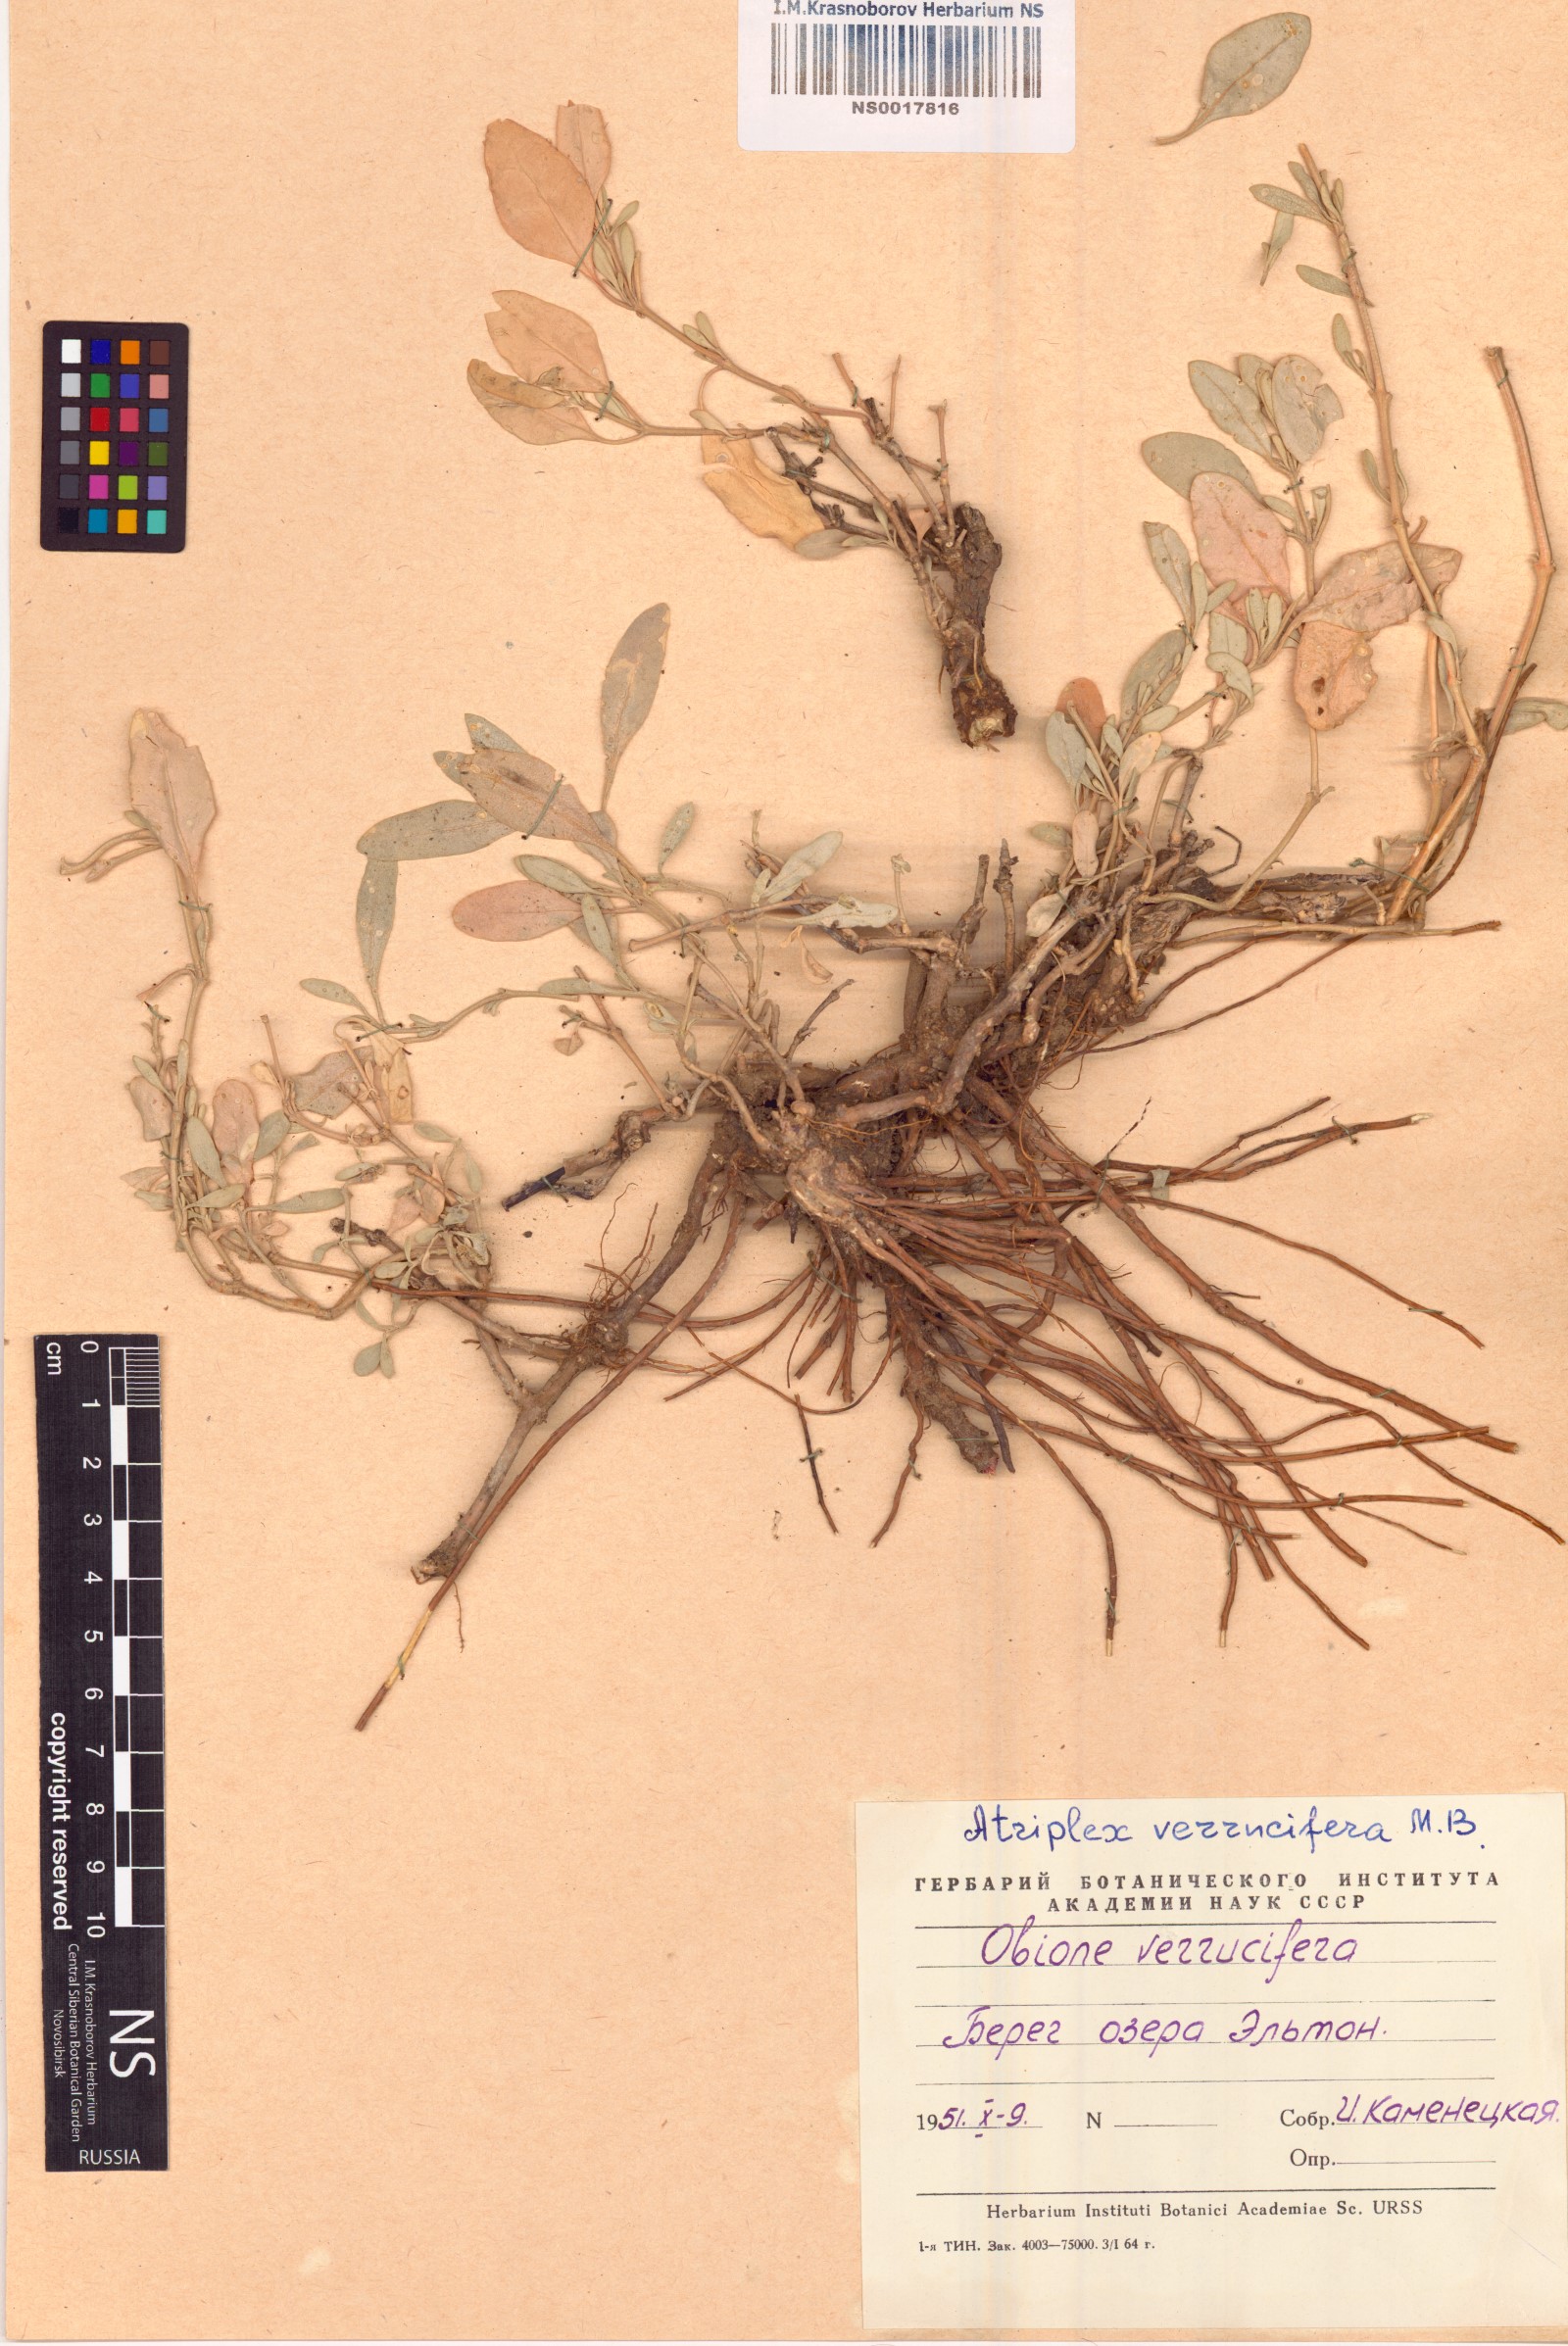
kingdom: Plantae
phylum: Tracheophyta
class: Magnoliopsida
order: Caryophyllales
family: Amaranthaceae
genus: Halimione
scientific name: Halimione verrucifera
